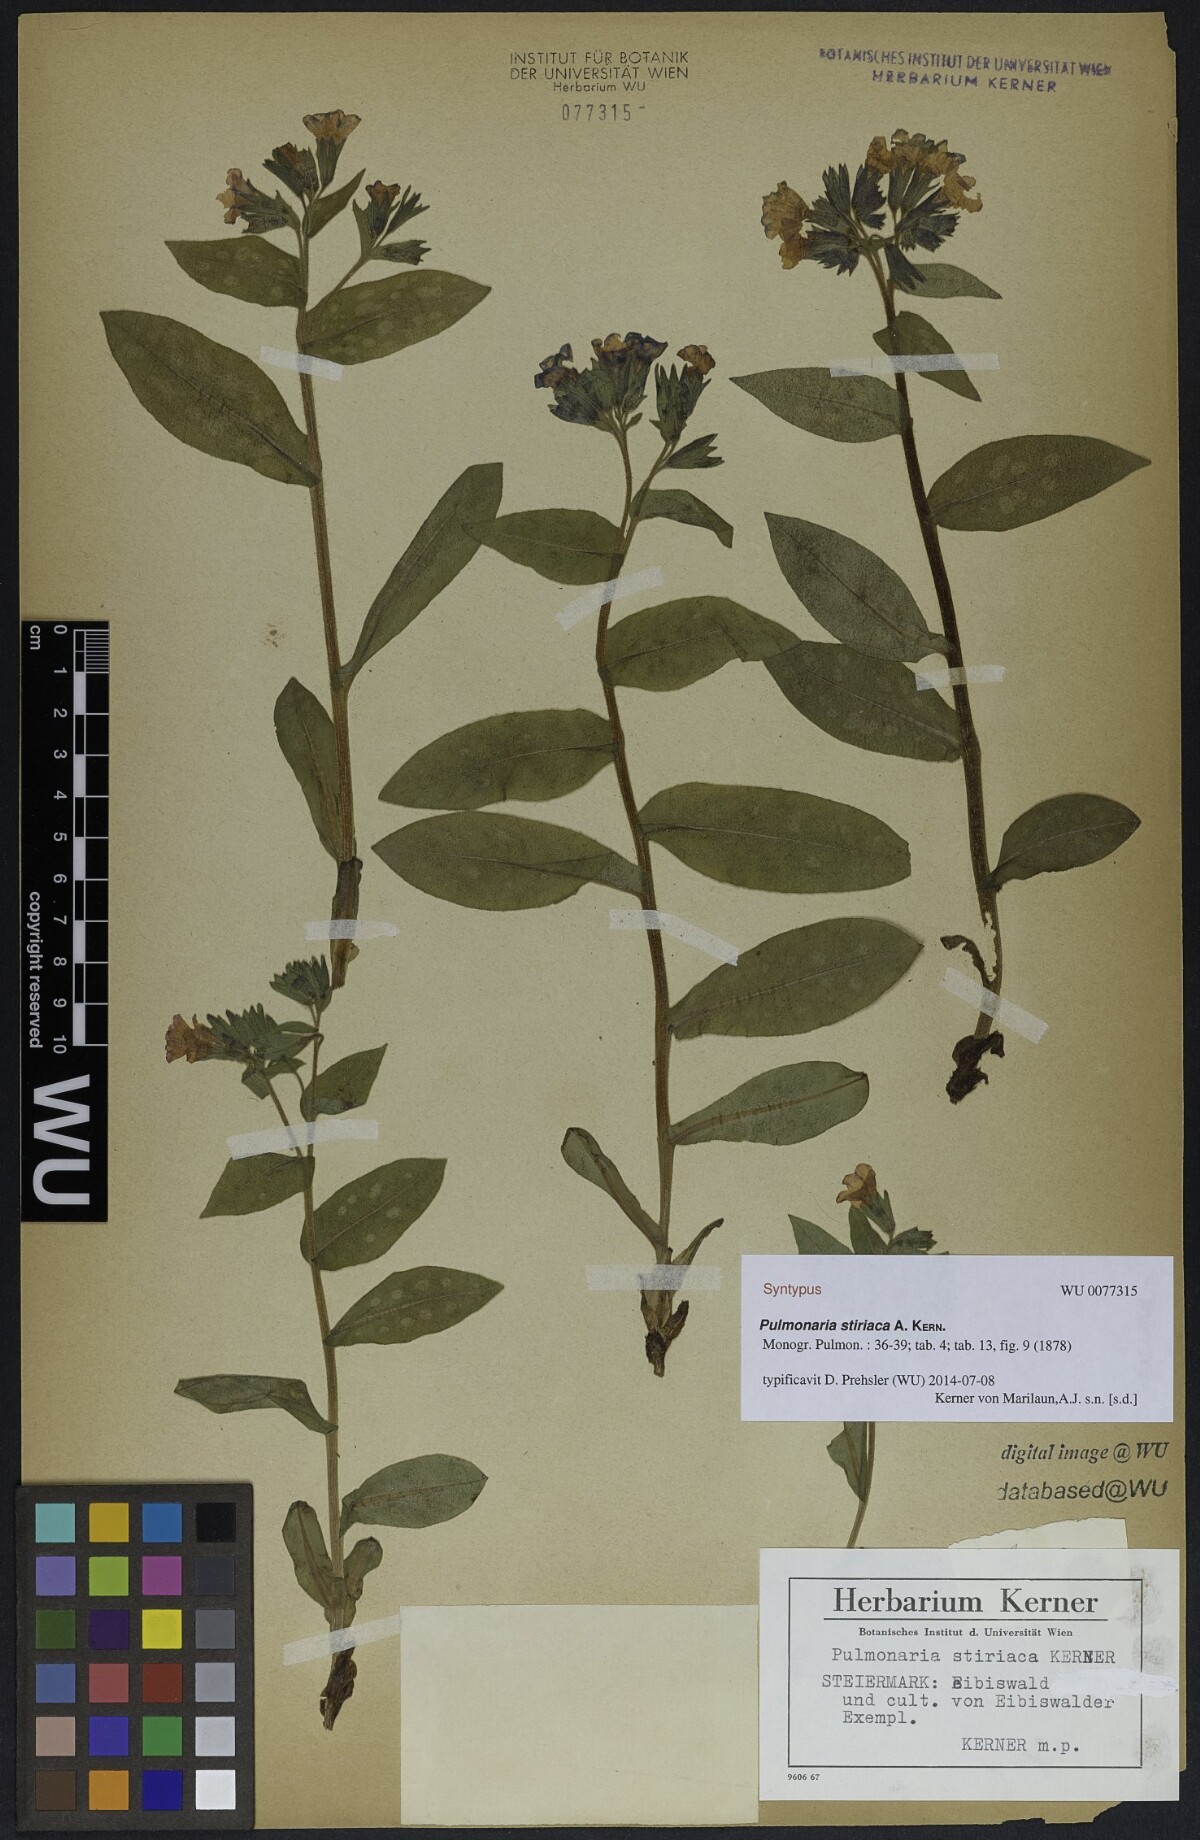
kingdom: Plantae
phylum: Tracheophyta
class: Magnoliopsida
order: Boraginales
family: Boraginaceae
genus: Pulmonaria
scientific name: Pulmonaria stiriaca
